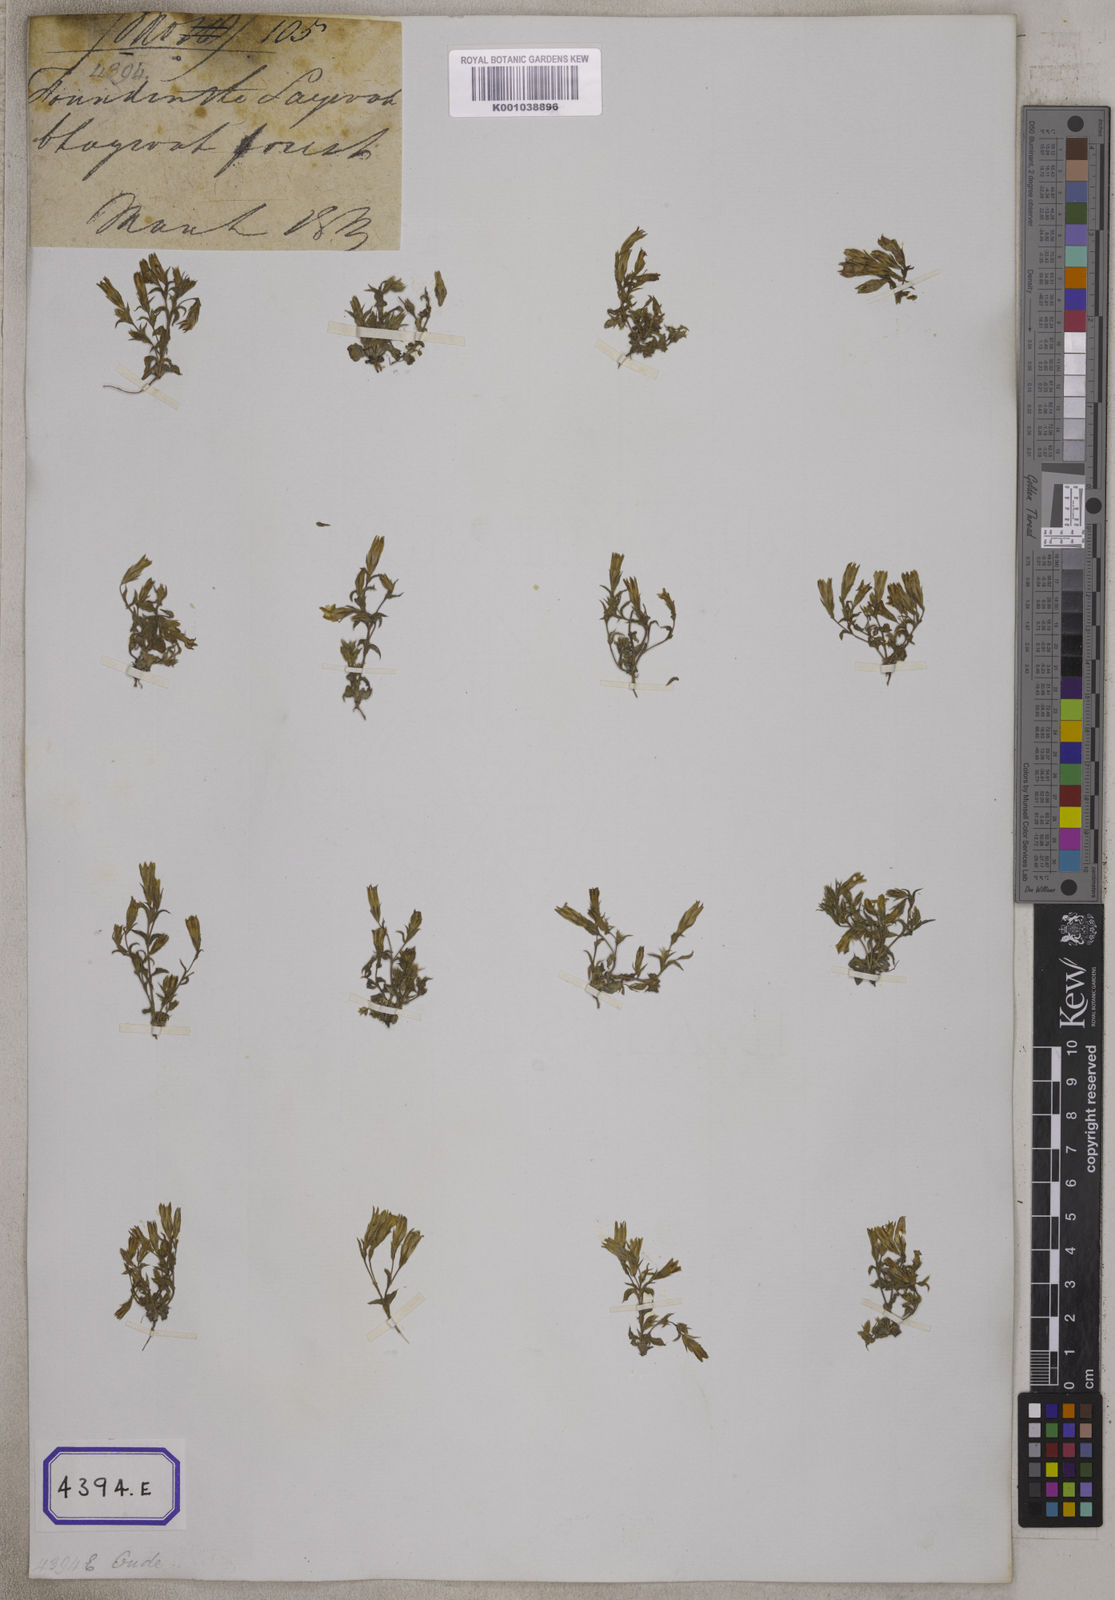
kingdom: Plantae
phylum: Tracheophyta
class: Magnoliopsida
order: Gentianales
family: Gentianaceae
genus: Gentiana
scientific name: Gentiana pedicellata
